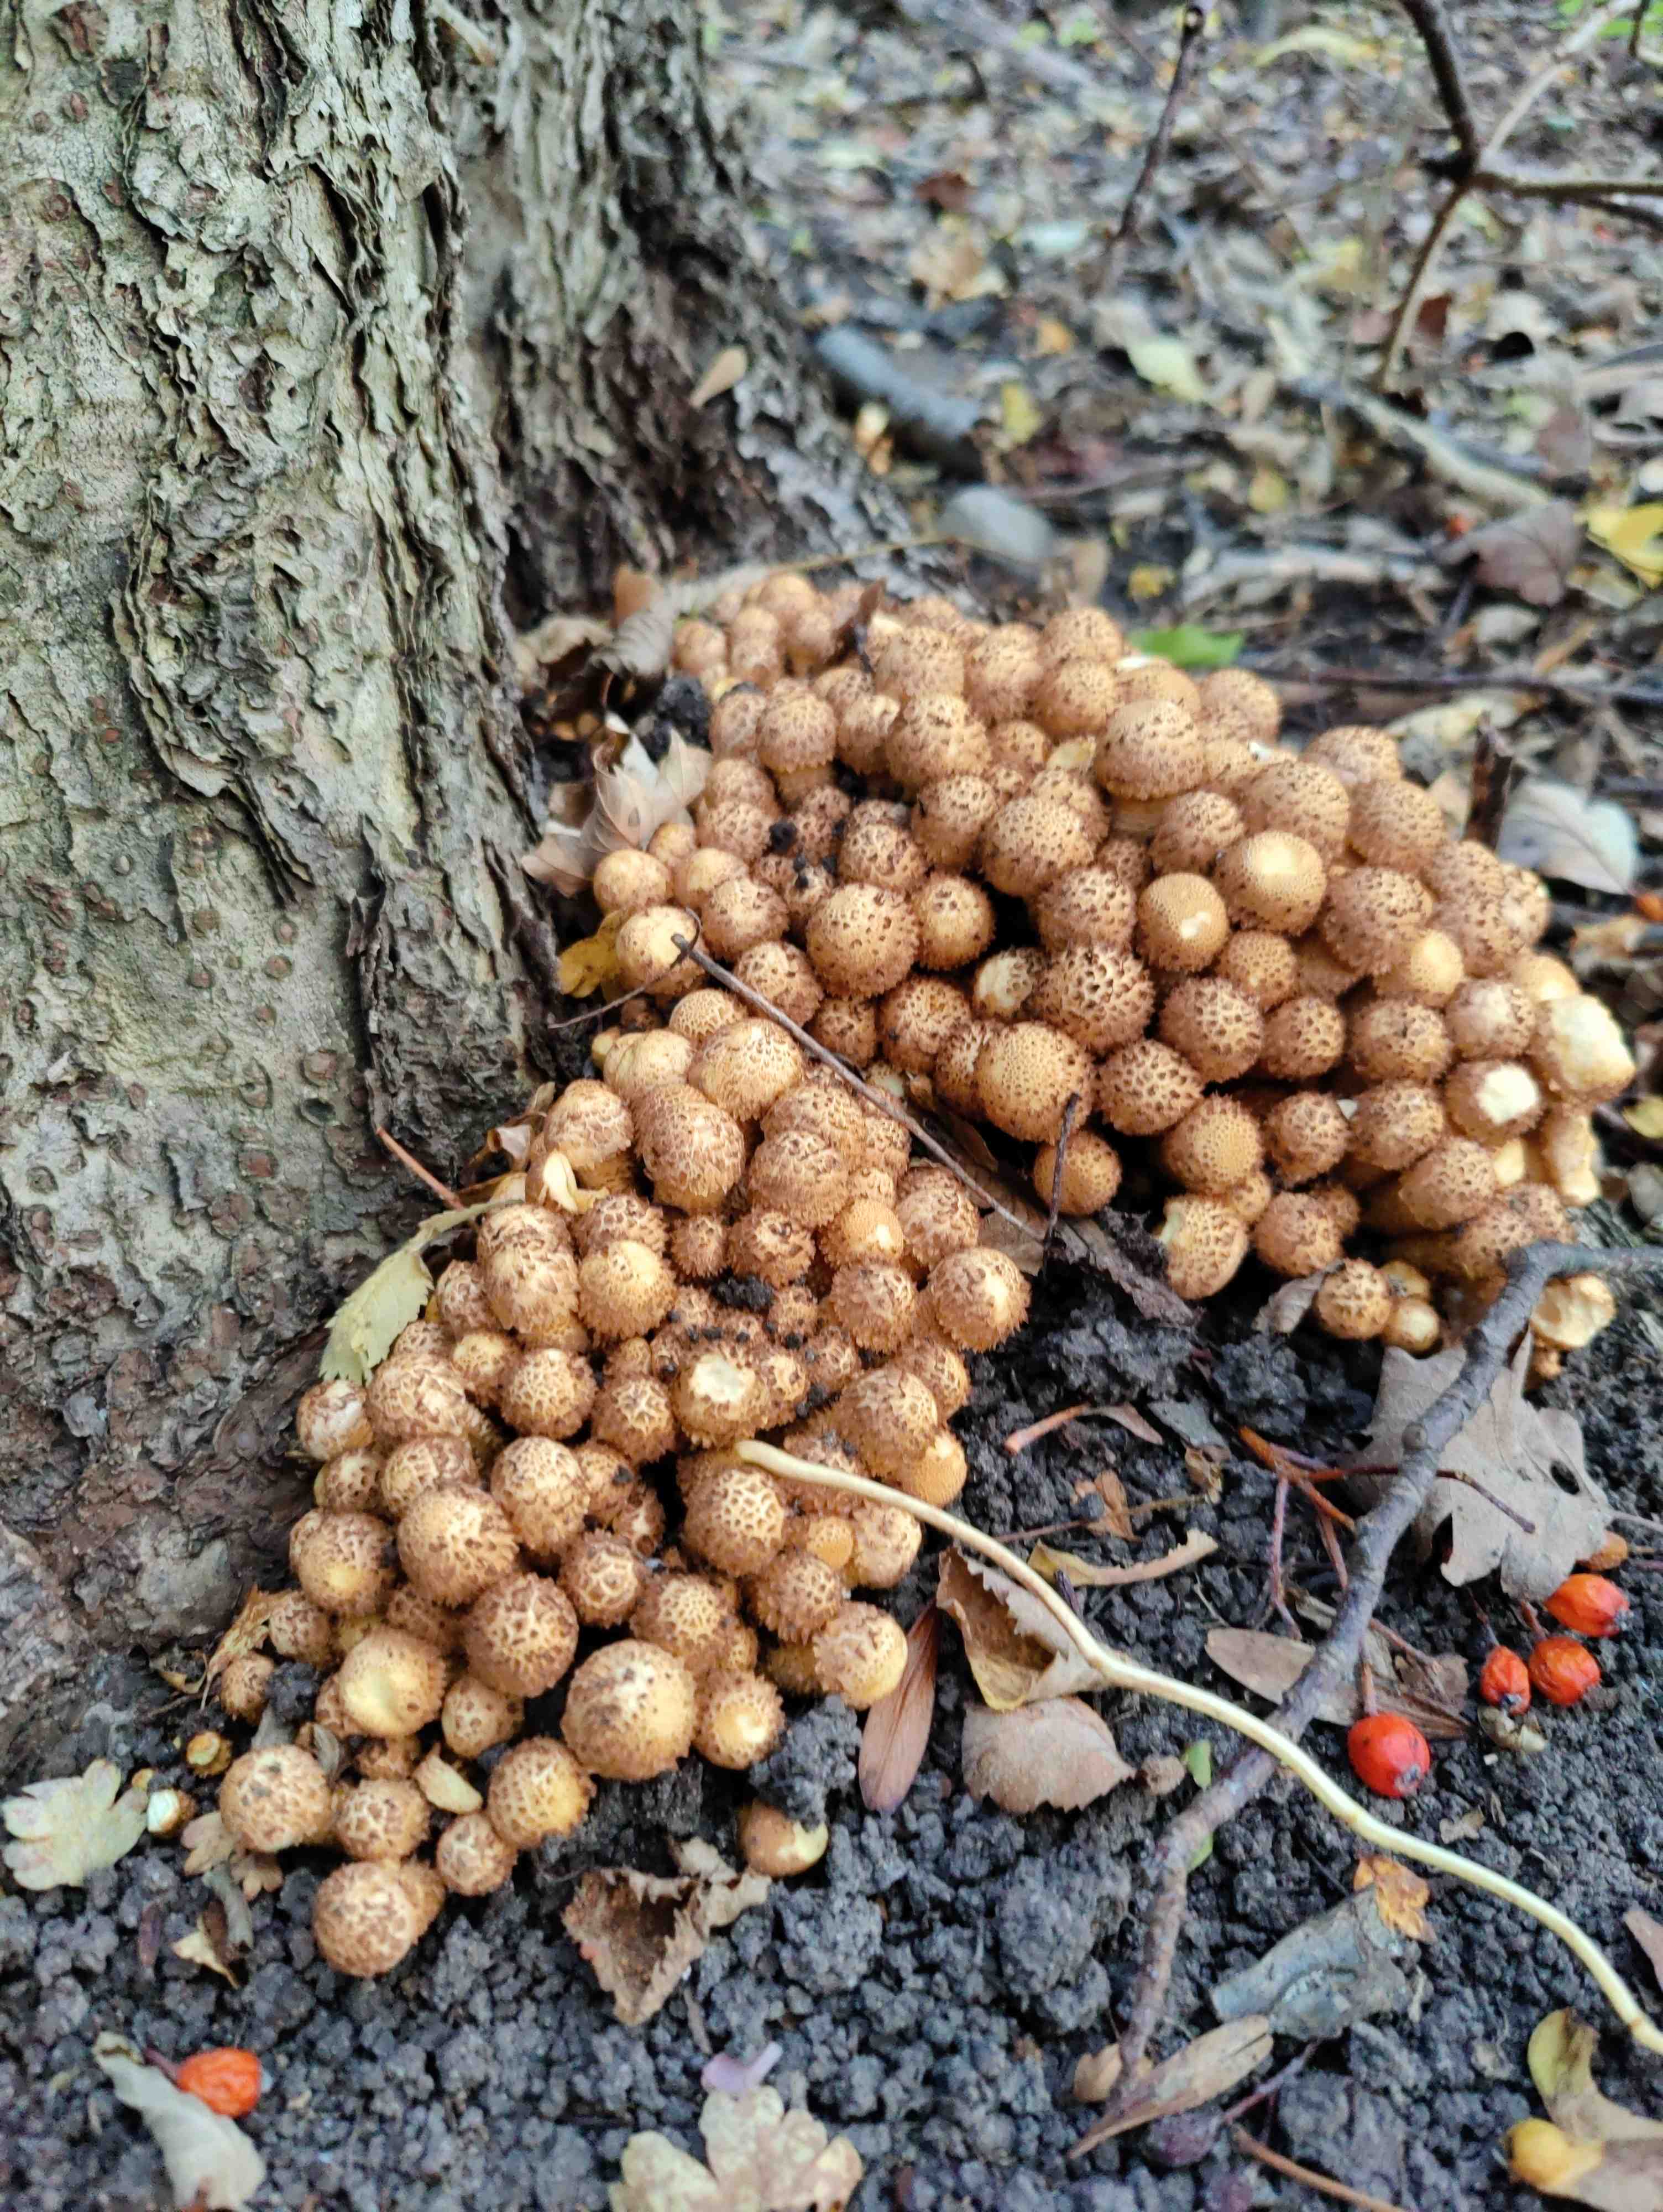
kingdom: Fungi
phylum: Basidiomycota
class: Agaricomycetes
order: Agaricales
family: Strophariaceae
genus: Pholiota
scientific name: Pholiota squarrosa
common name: krumskællet skælhat
